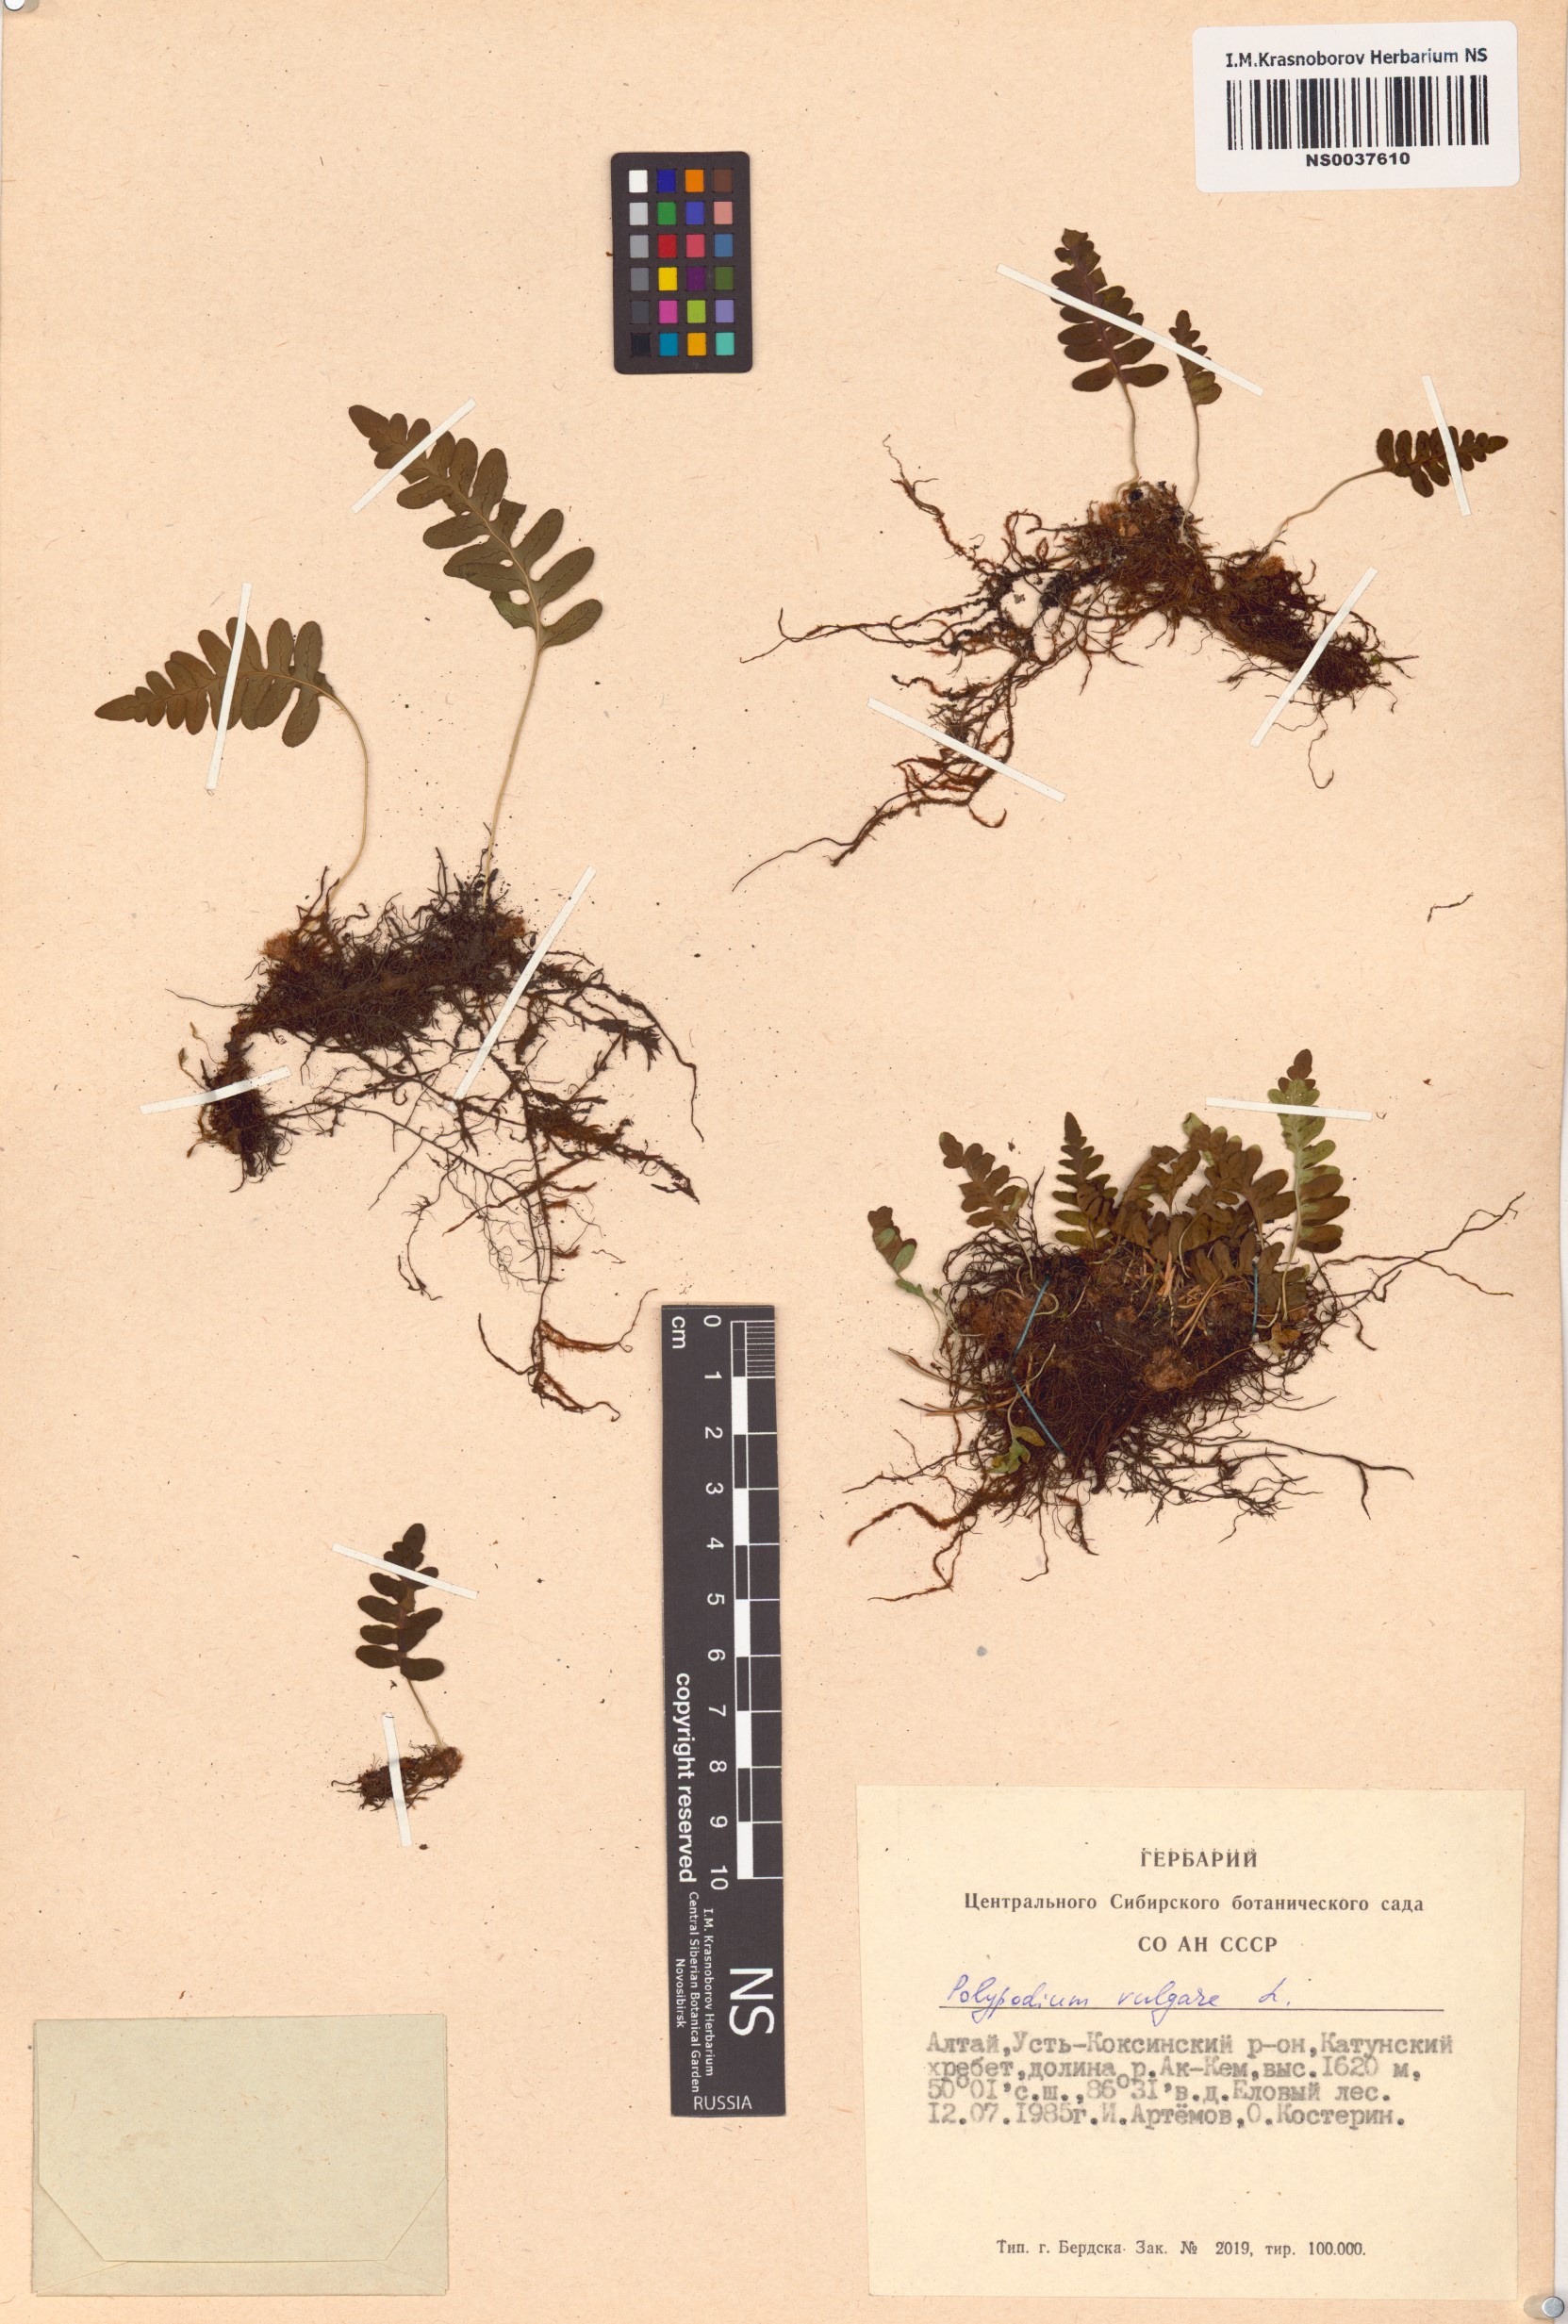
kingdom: Plantae
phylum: Tracheophyta
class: Polypodiopsida
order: Polypodiales
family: Polypodiaceae
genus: Polypodium
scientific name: Polypodium vulgare
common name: Common polypody
